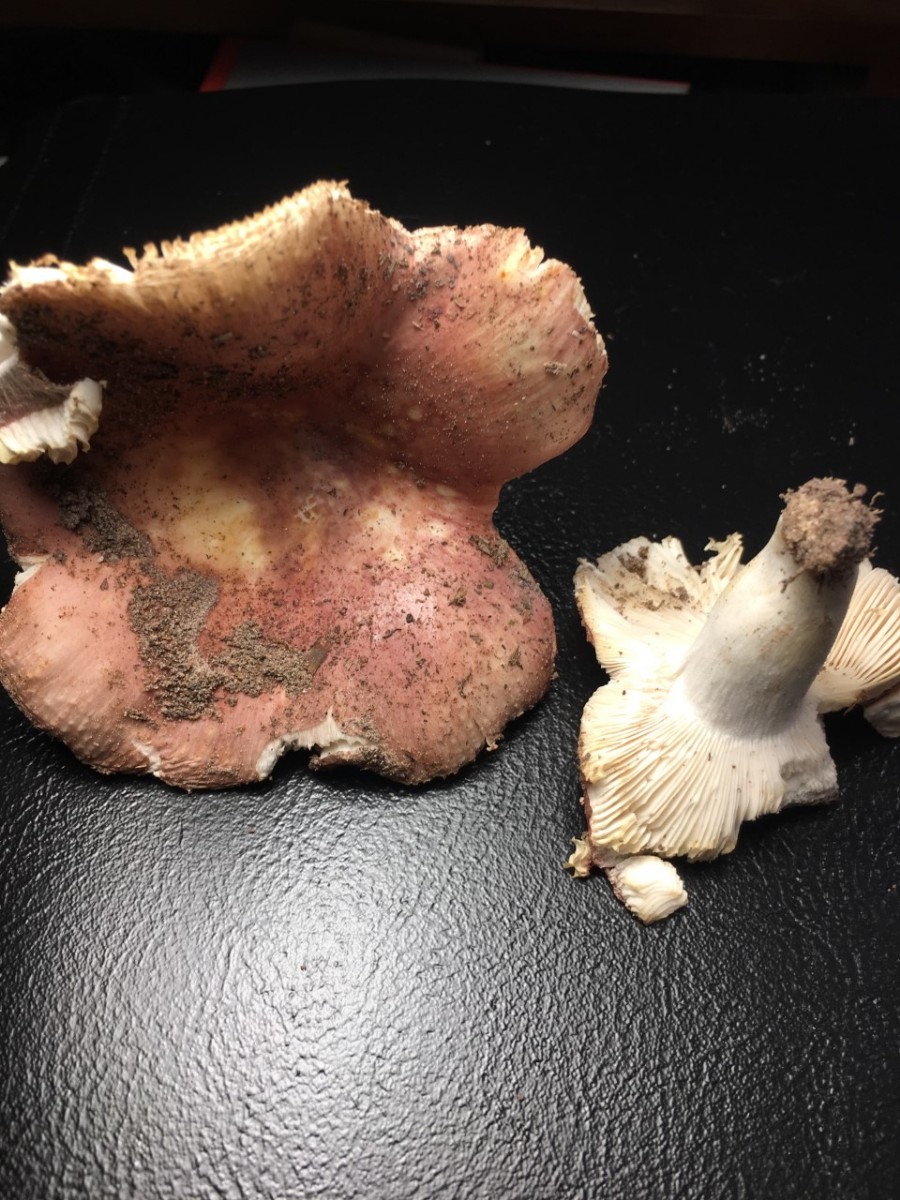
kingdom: Fungi
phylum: Basidiomycota
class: Agaricomycetes
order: Russulales
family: Russulaceae
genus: Russula
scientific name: Russula vesca
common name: spiselig skørhat
